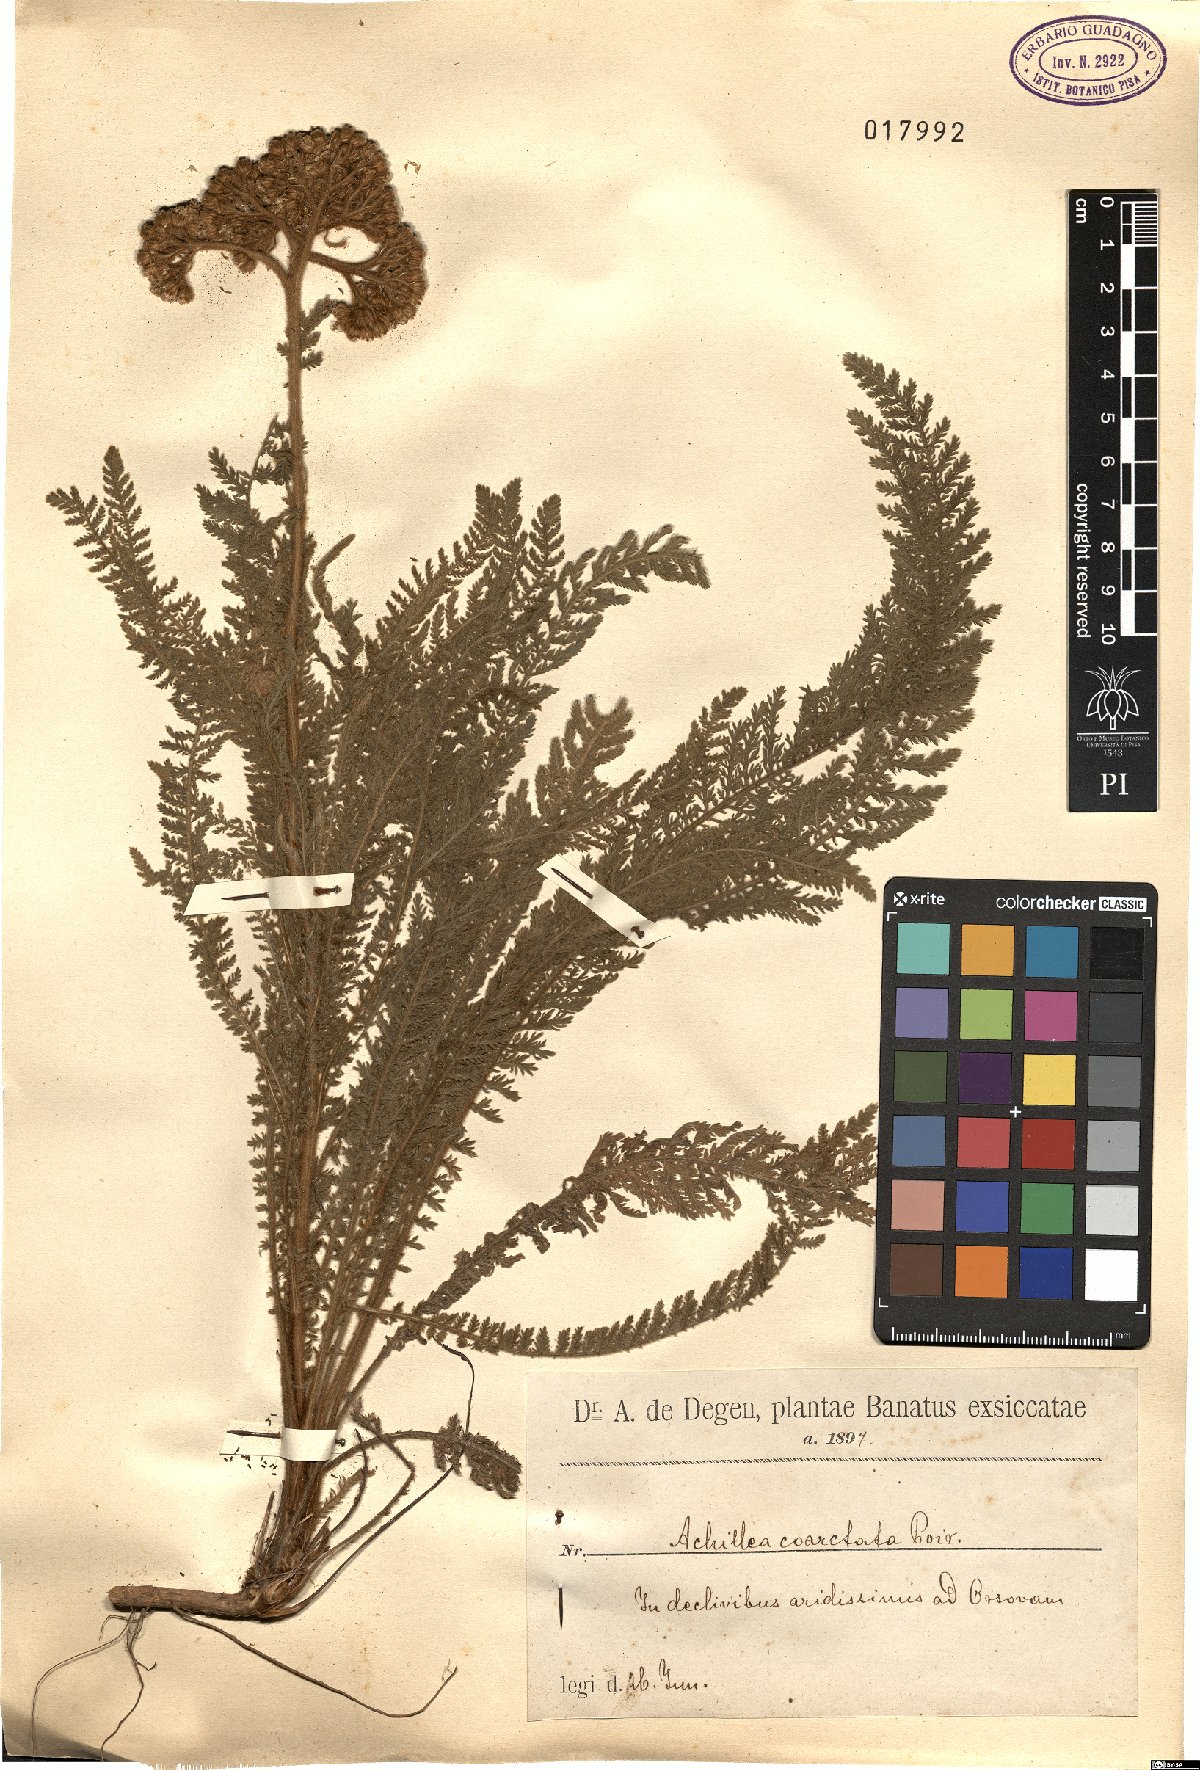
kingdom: Plantae
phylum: Tracheophyta
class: Magnoliopsida
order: Asterales
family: Asteraceae
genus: Achillea
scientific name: Achillea coarctata
